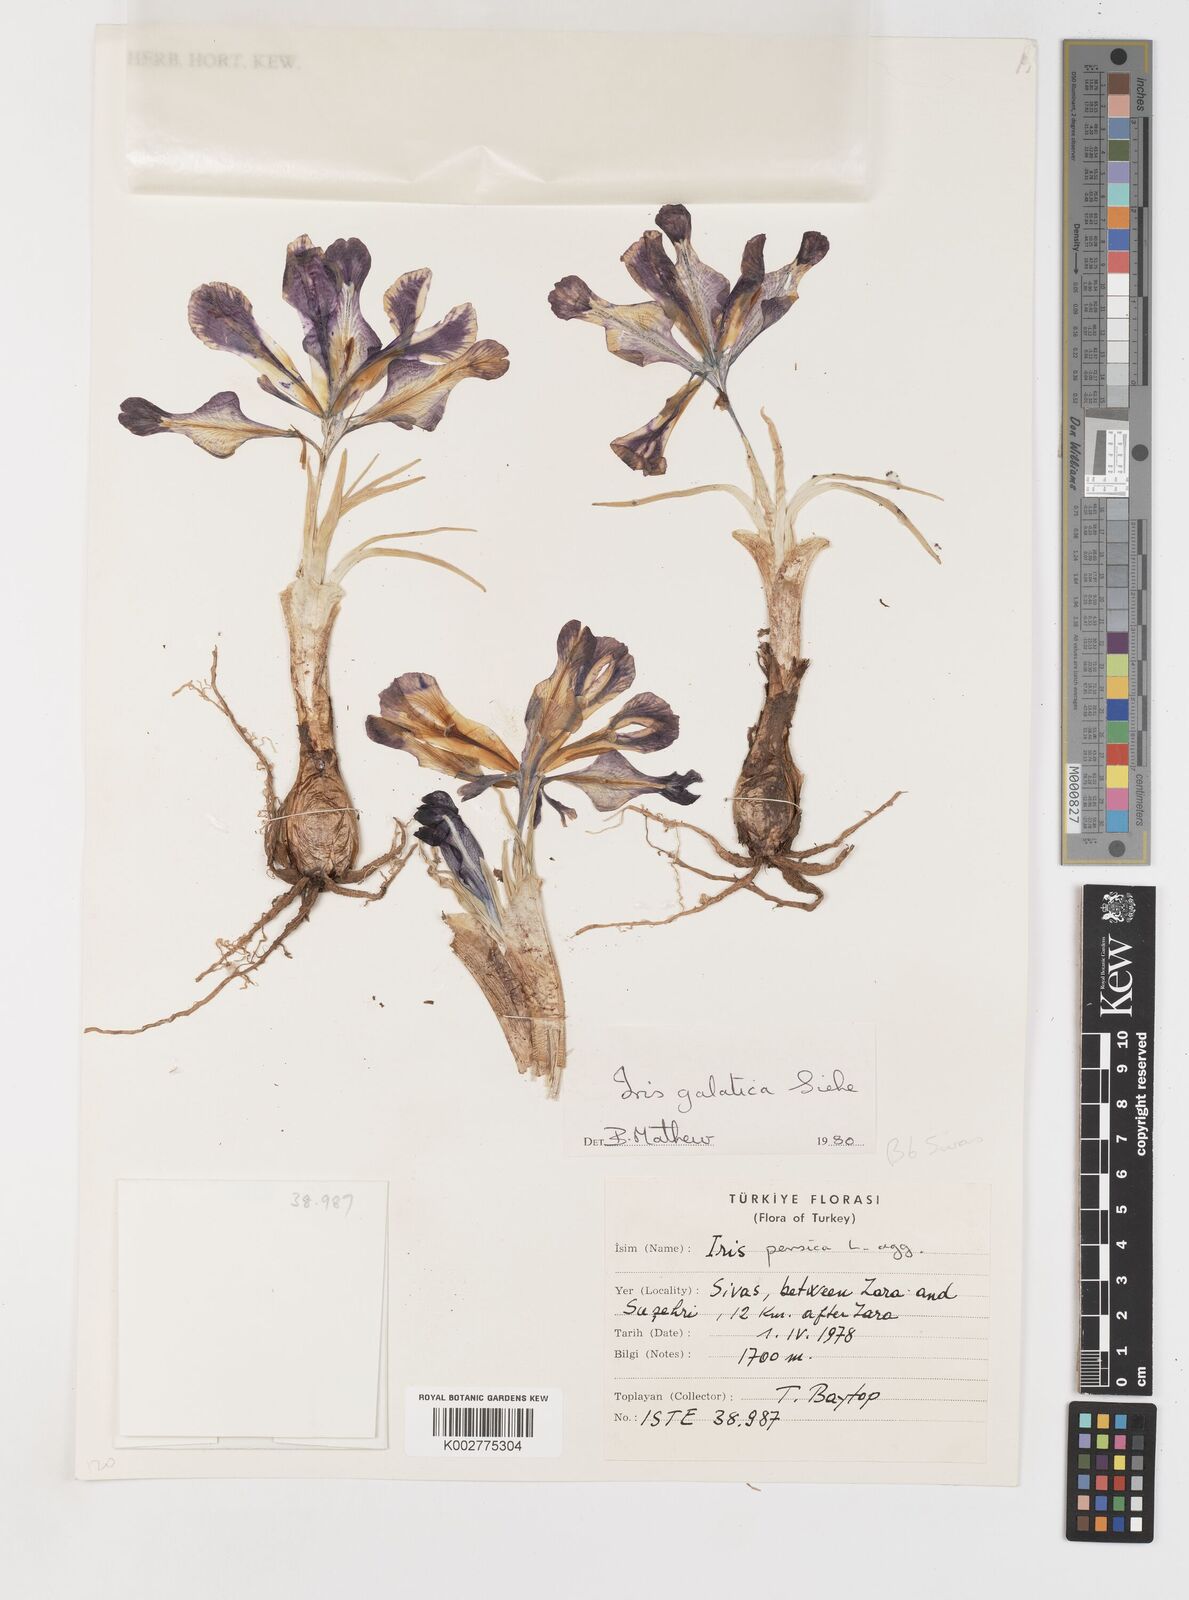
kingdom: Plantae
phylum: Tracheophyta
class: Liliopsida
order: Asparagales
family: Iridaceae
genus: Iris
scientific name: Iris
